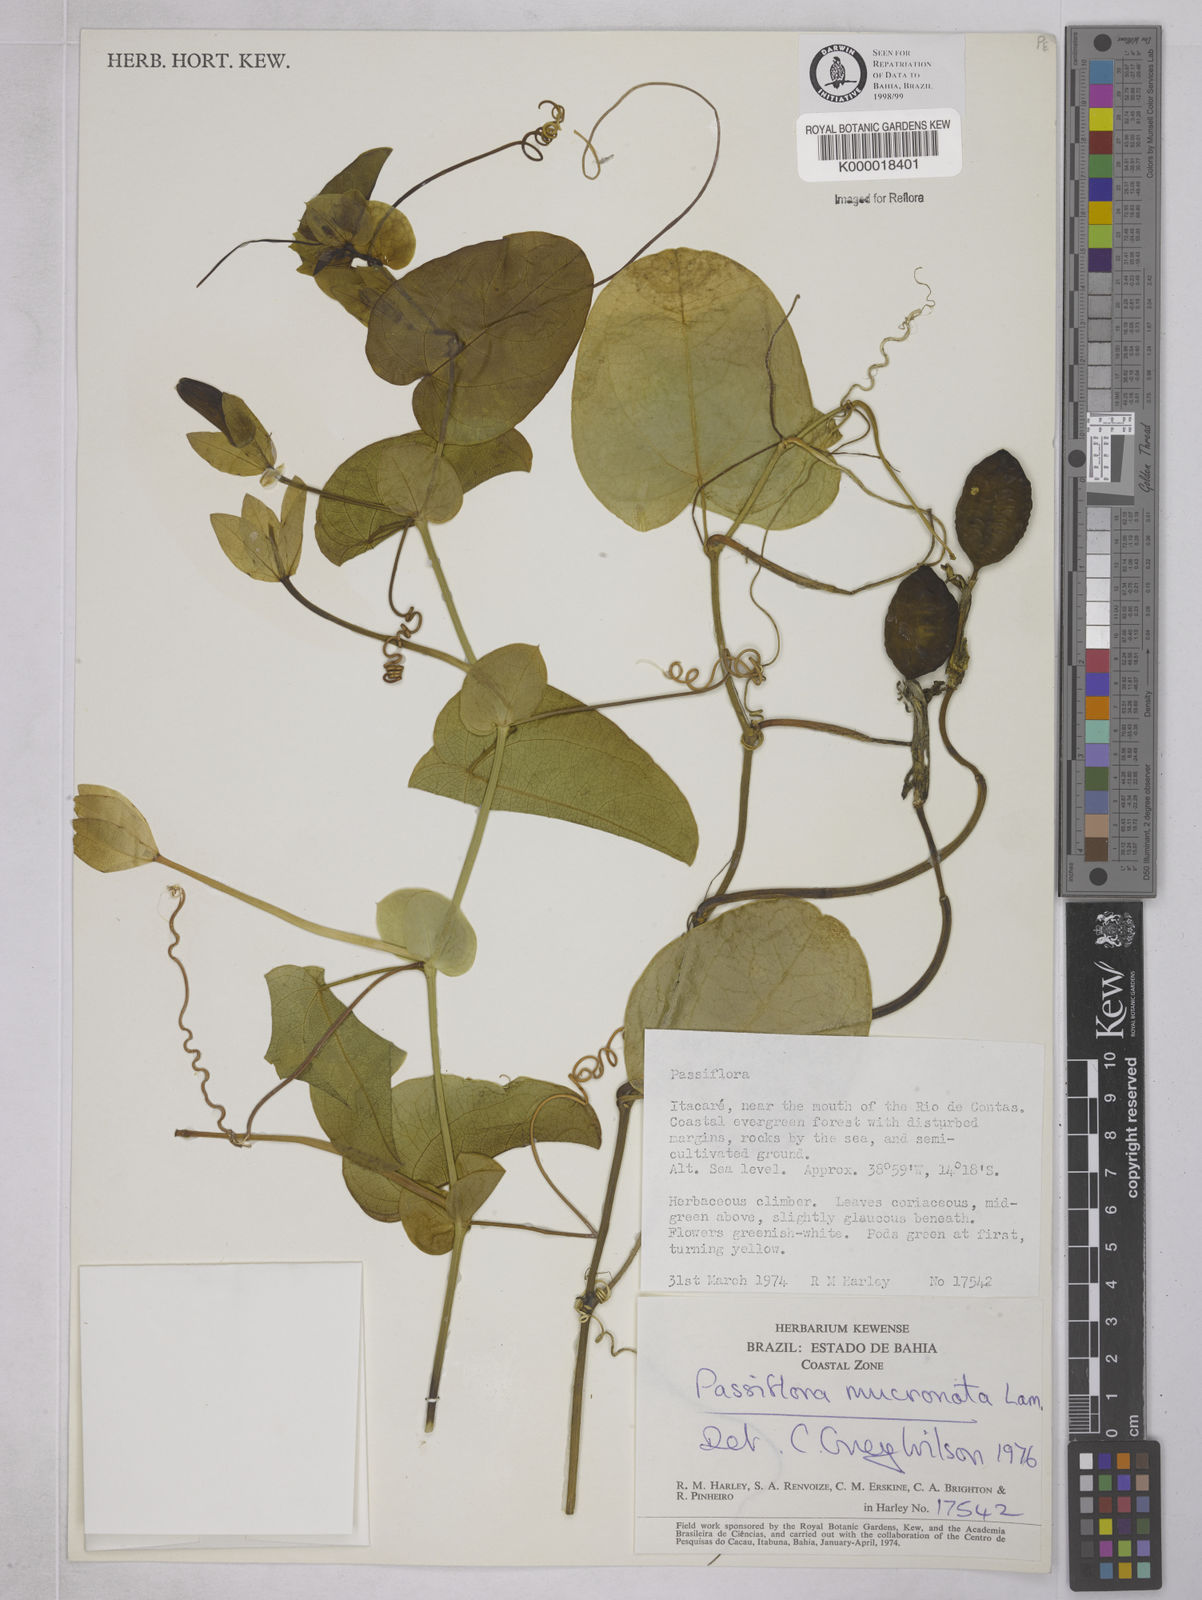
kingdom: Plantae
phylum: Tracheophyta
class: Magnoliopsida
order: Malpighiales
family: Passifloraceae
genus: Passiflora
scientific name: Passiflora mucronata
